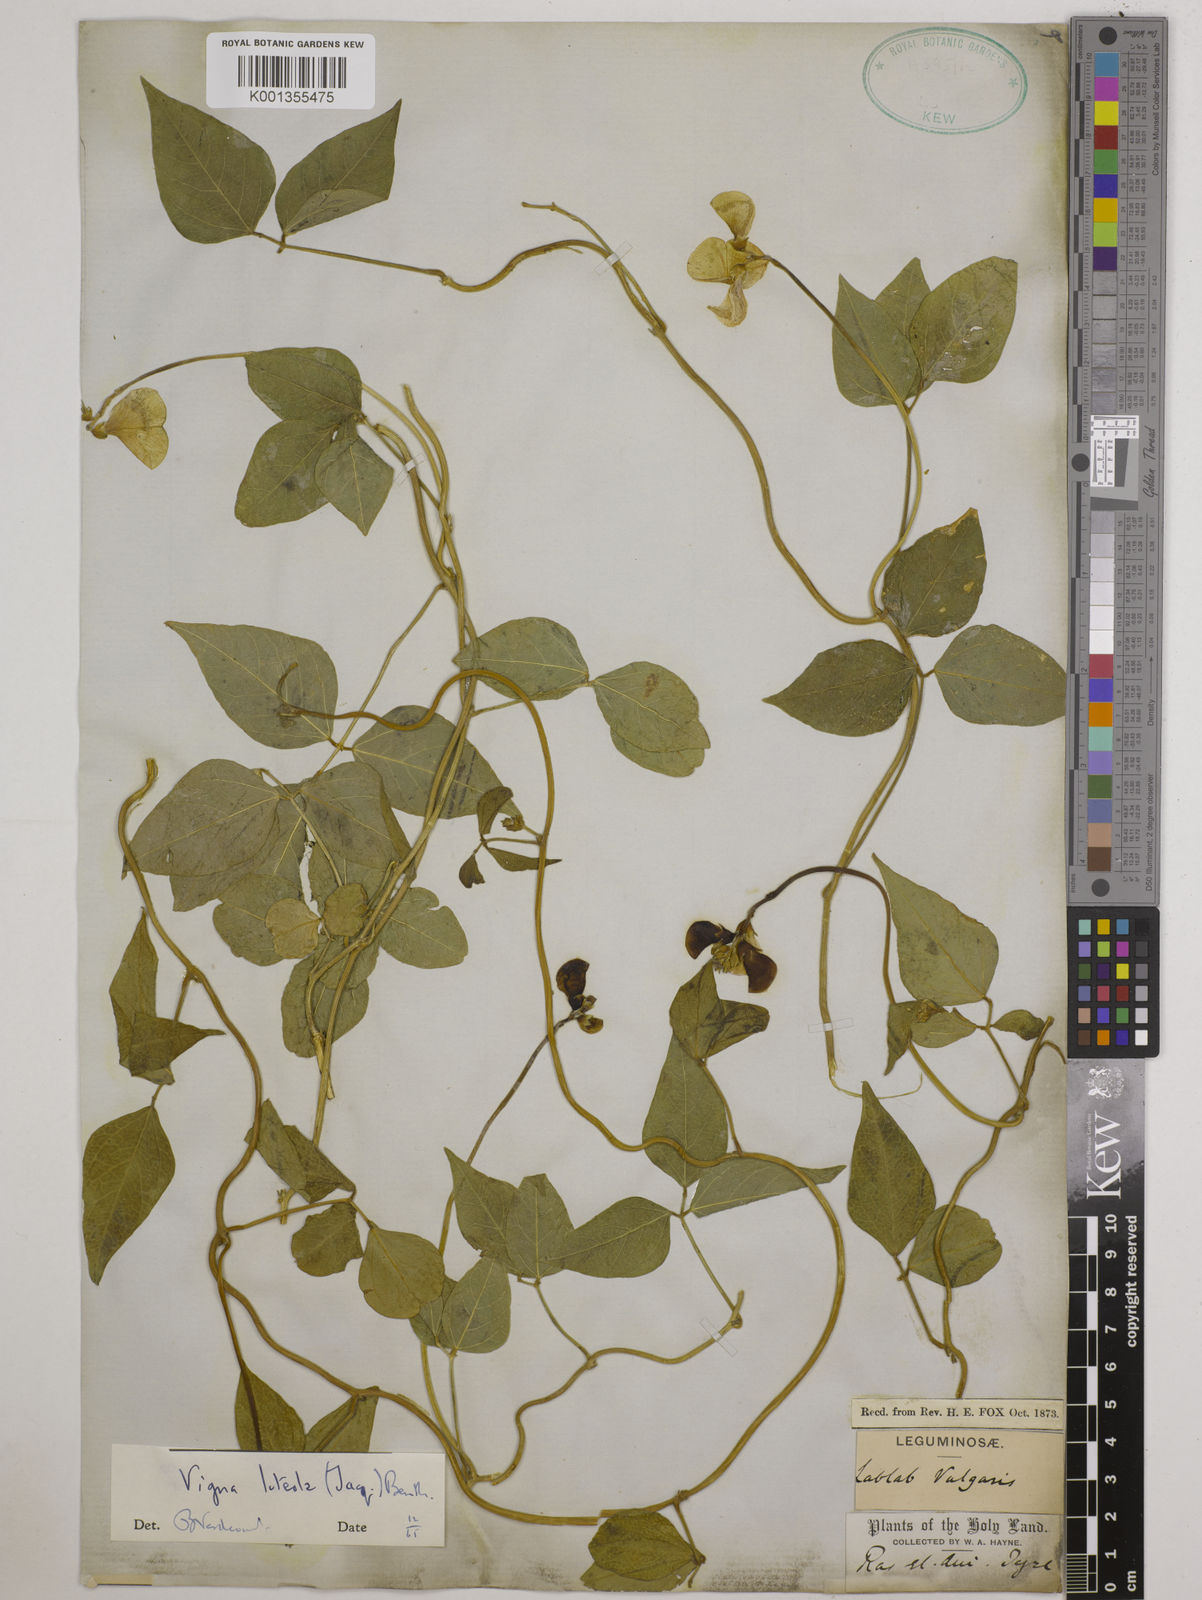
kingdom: Plantae
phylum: Tracheophyta
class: Magnoliopsida
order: Fabales
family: Fabaceae
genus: Vigna
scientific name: Vigna luteola
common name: Hairypod cowpea
